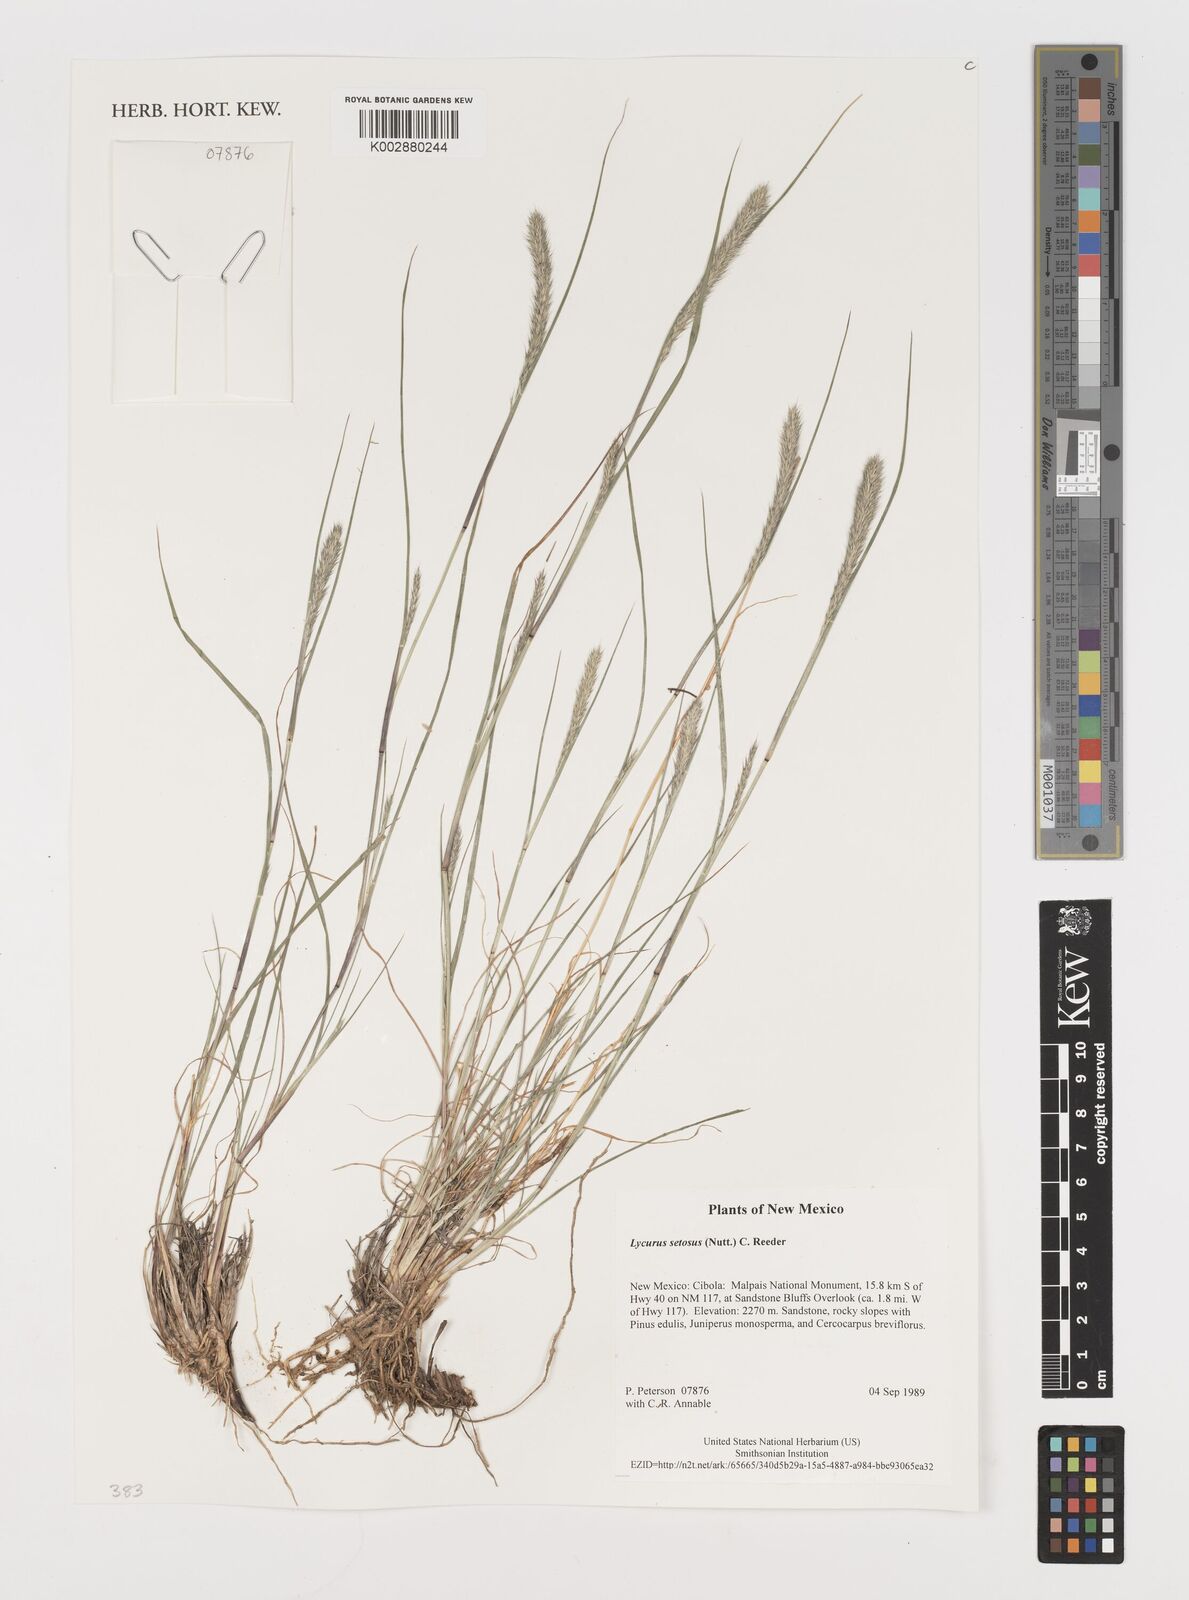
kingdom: Plantae
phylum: Tracheophyta
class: Liliopsida
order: Poales
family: Poaceae
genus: Muhlenbergia
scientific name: Muhlenbergia alopecuroides
